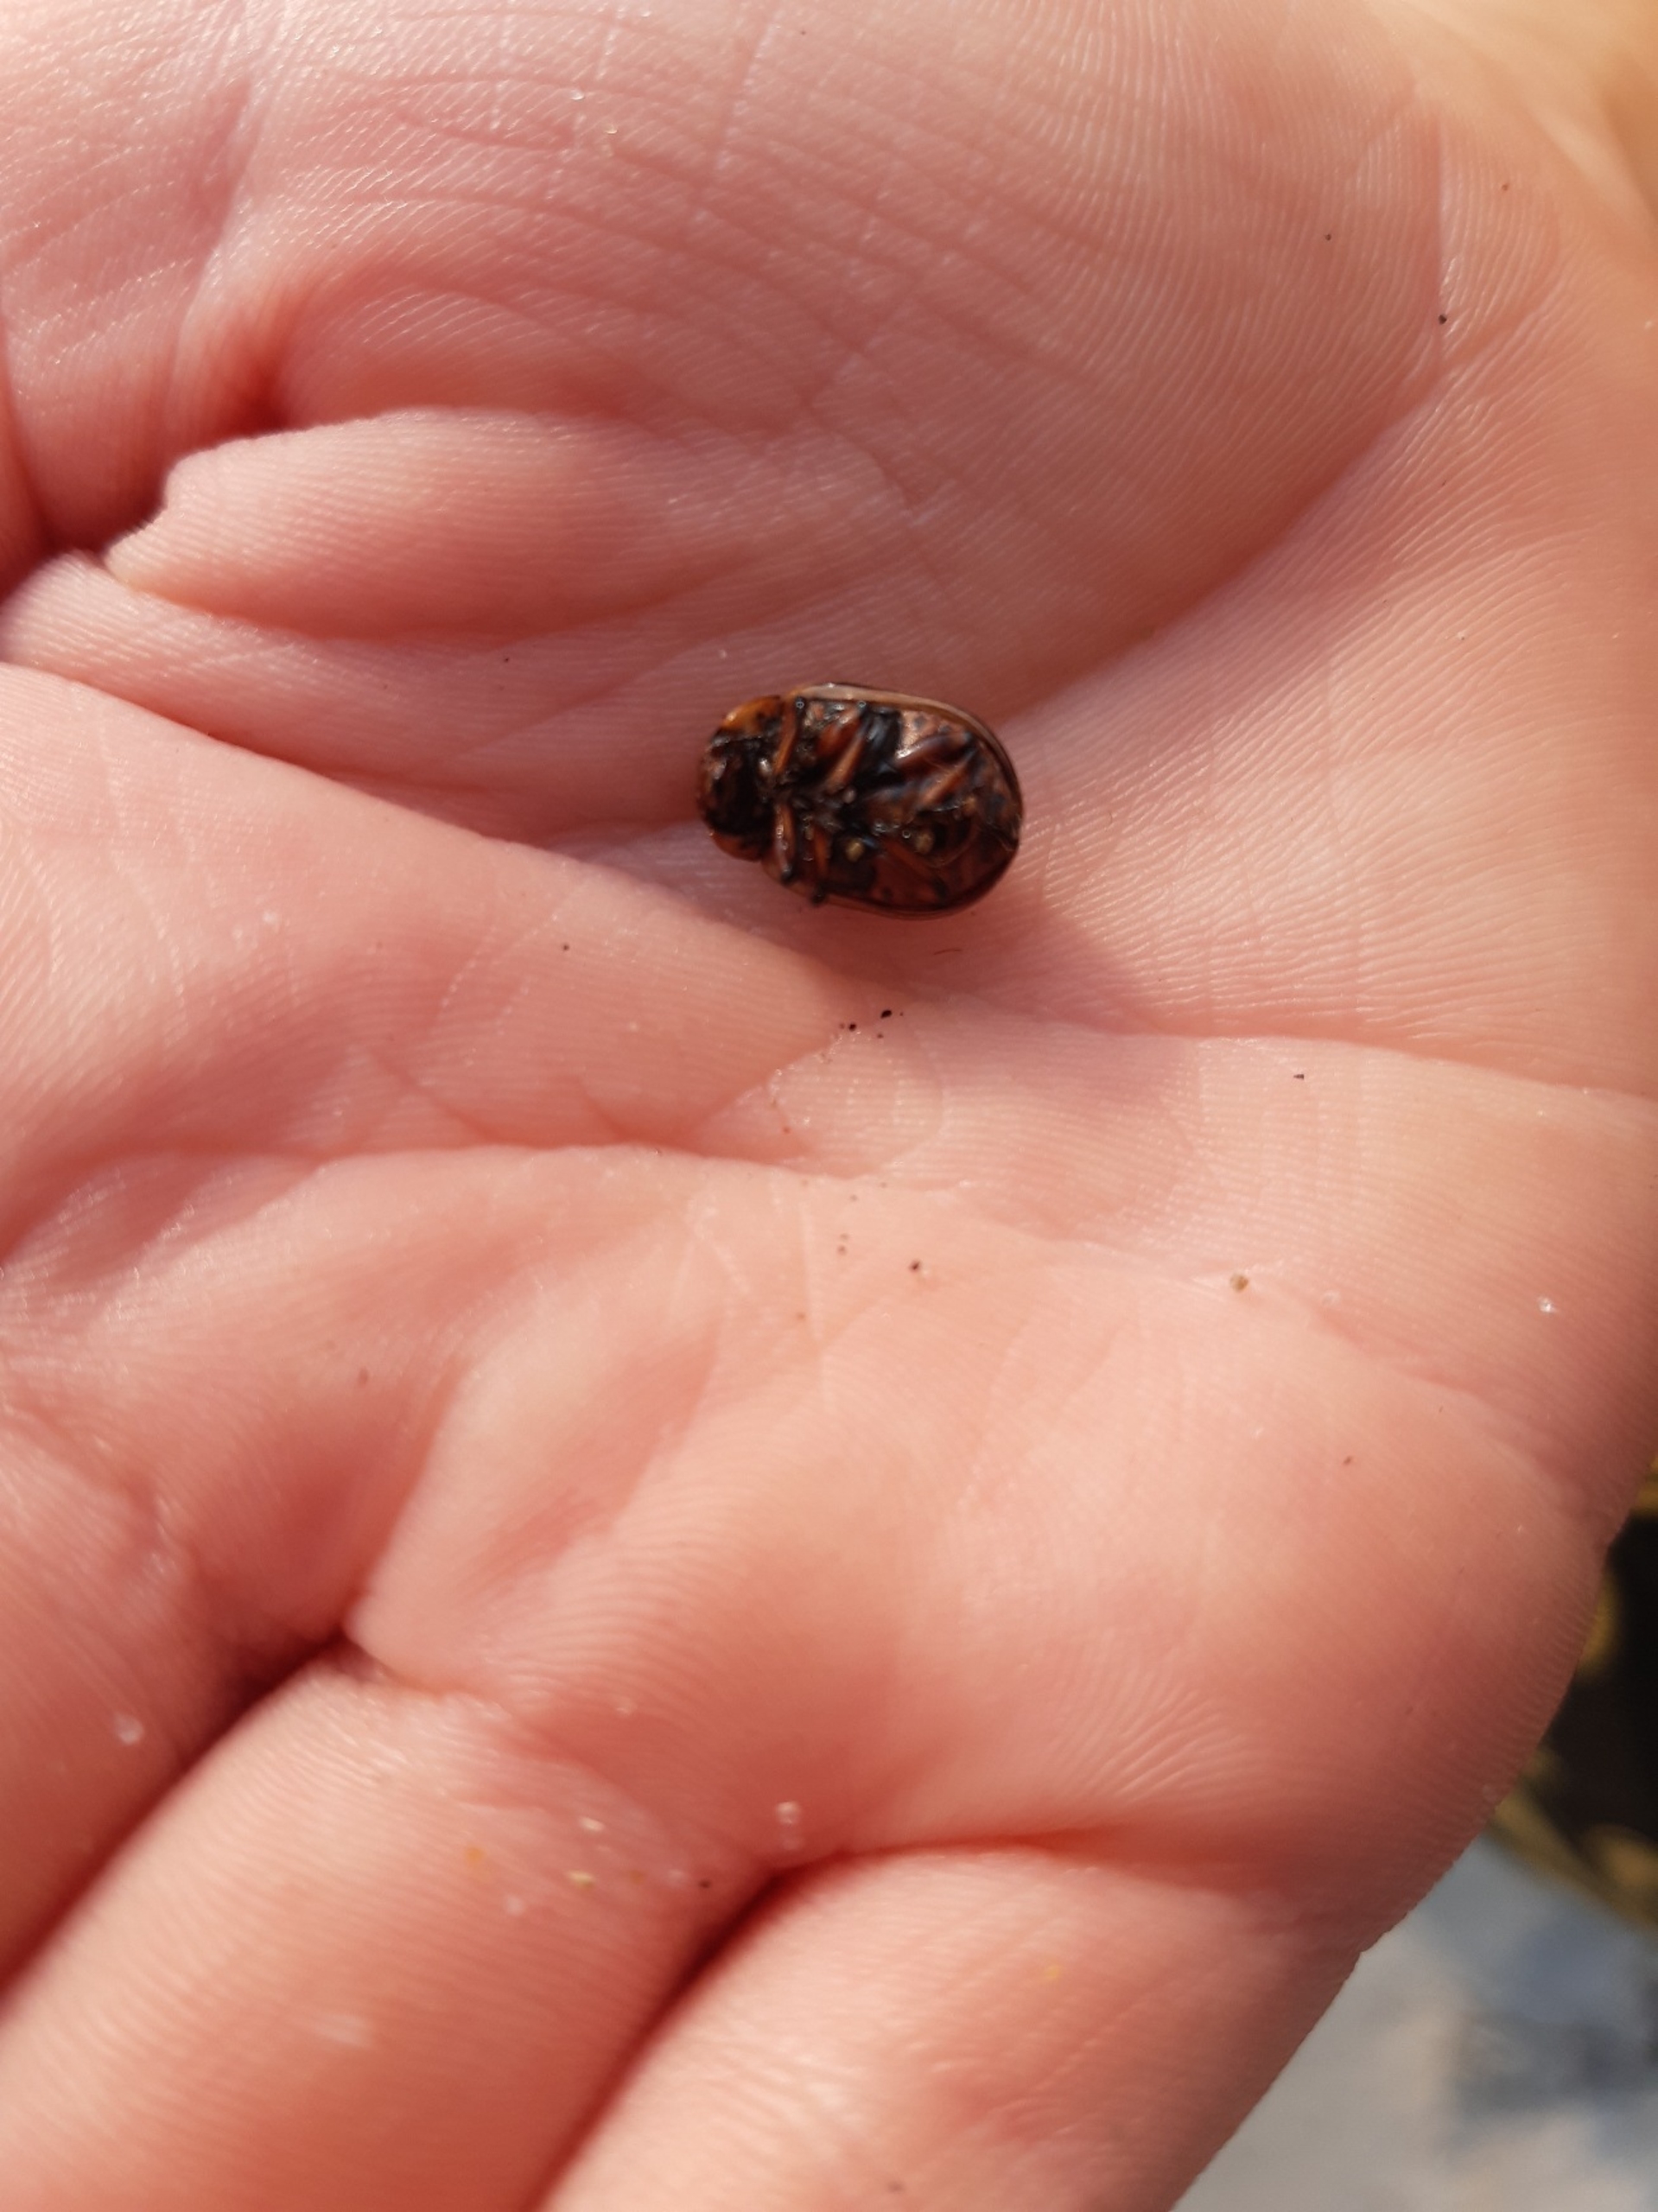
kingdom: Animalia
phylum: Arthropoda
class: Insecta
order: Coleoptera
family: Chrysomelidae
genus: Leptinotarsa
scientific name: Leptinotarsa decemlineata
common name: Coloradobille
